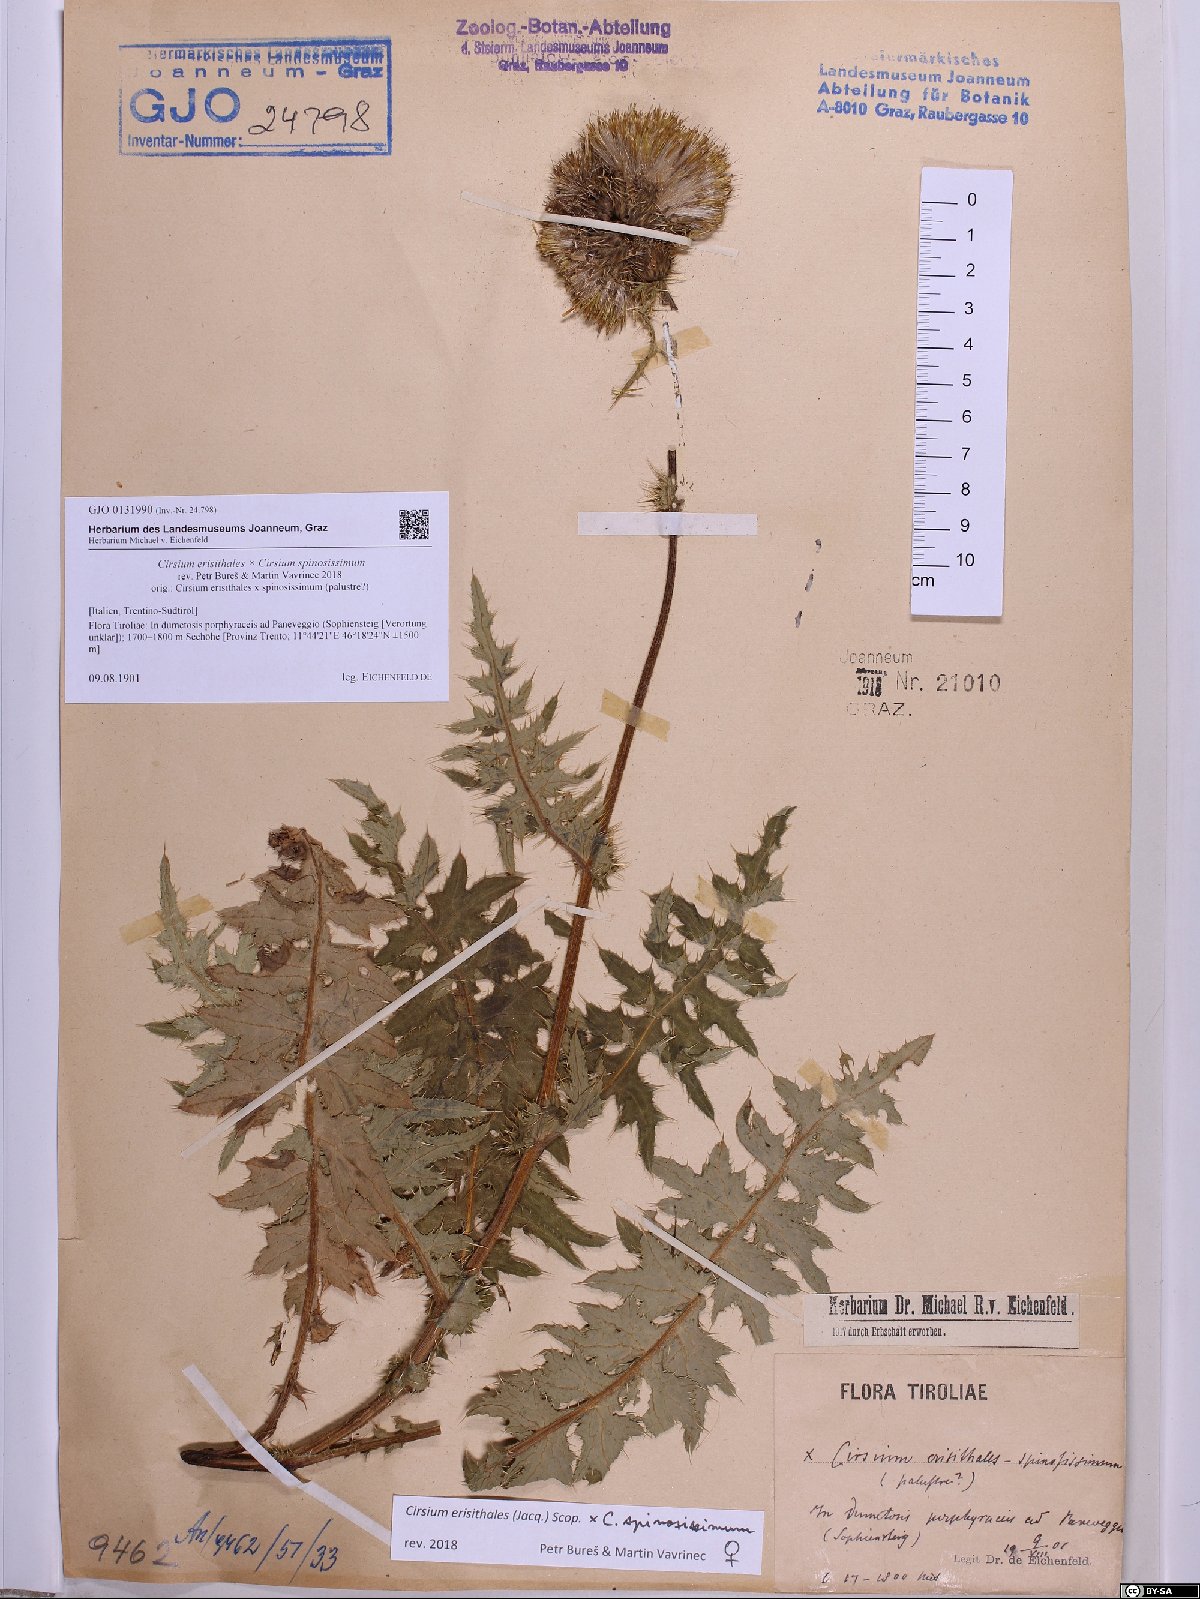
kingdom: Plantae
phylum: Tracheophyta
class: Magnoliopsida
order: Asterales
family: Asteraceae
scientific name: Asteraceae
